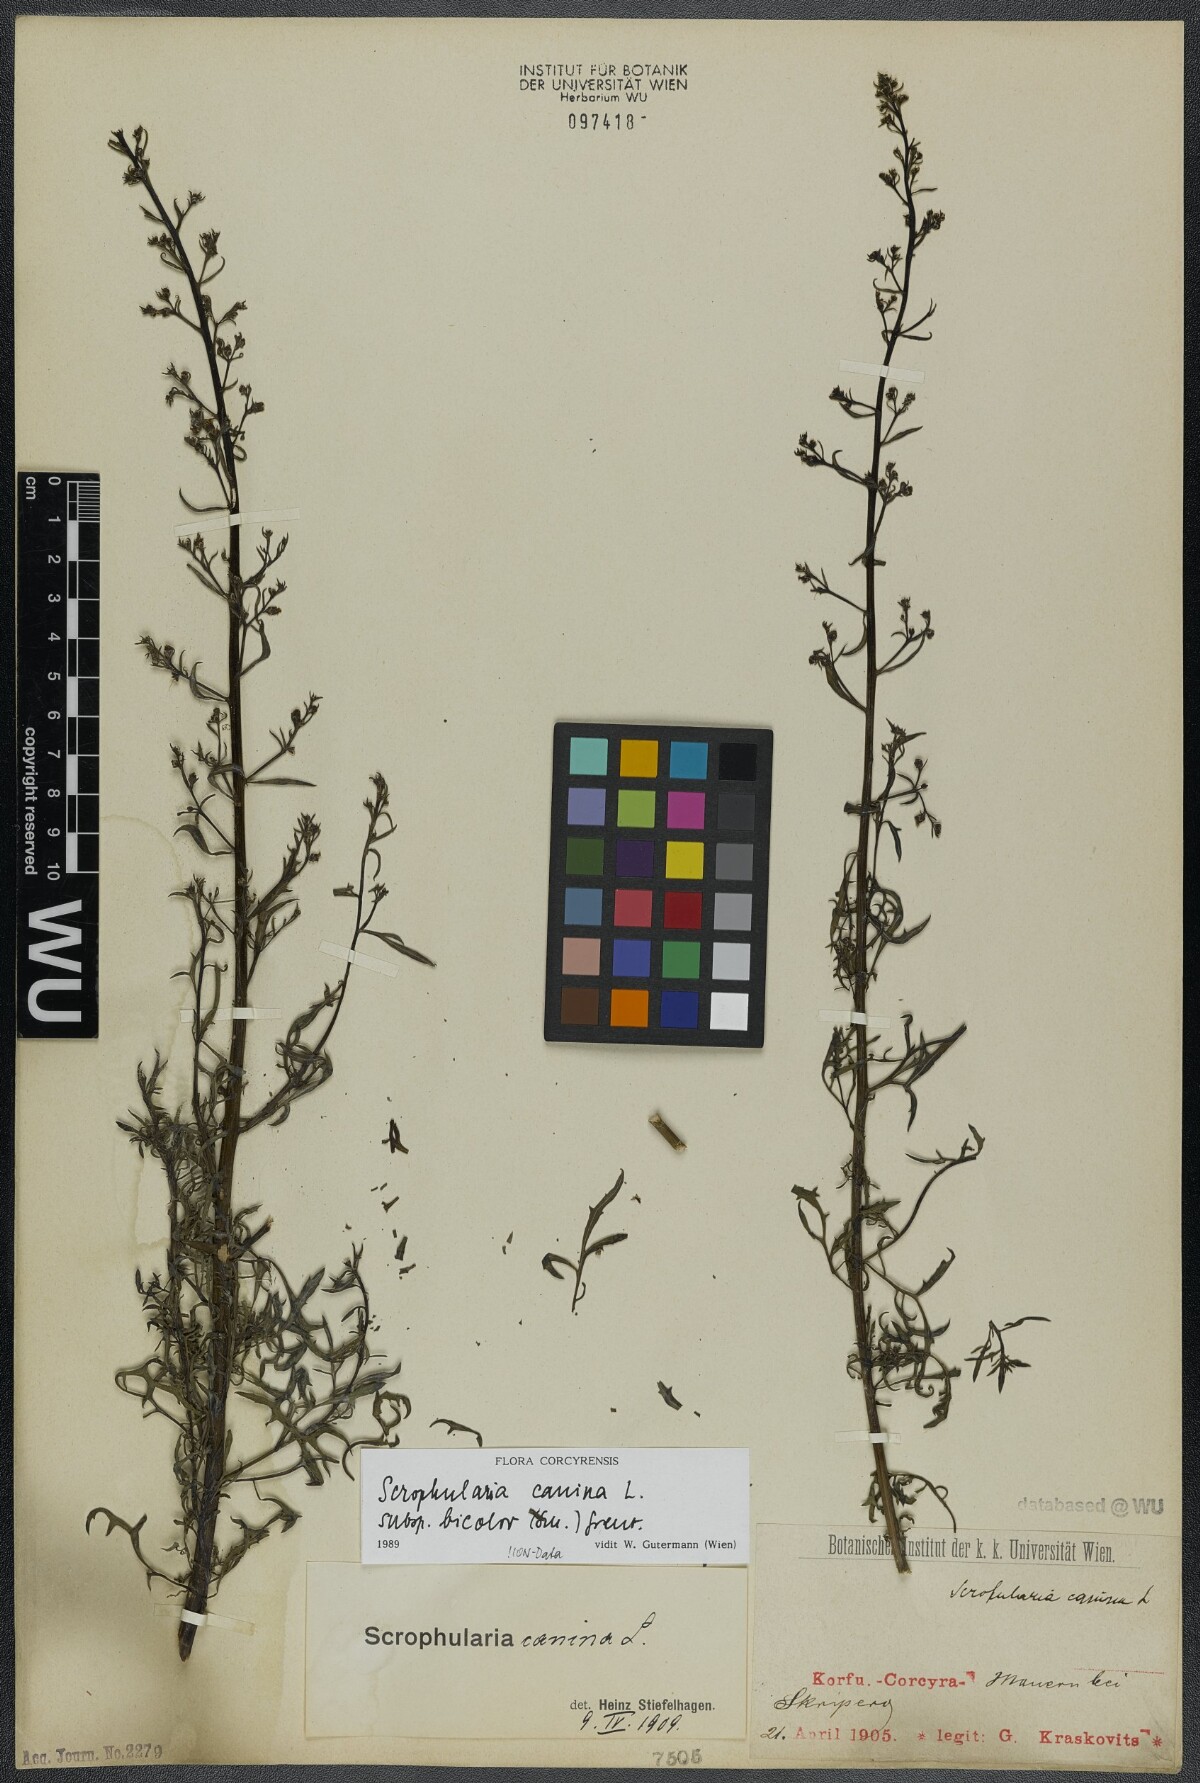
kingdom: Plantae
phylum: Tracheophyta
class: Magnoliopsida
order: Lamiales
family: Scrophulariaceae
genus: Scrophularia
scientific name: Scrophularia canina
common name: French figwort
